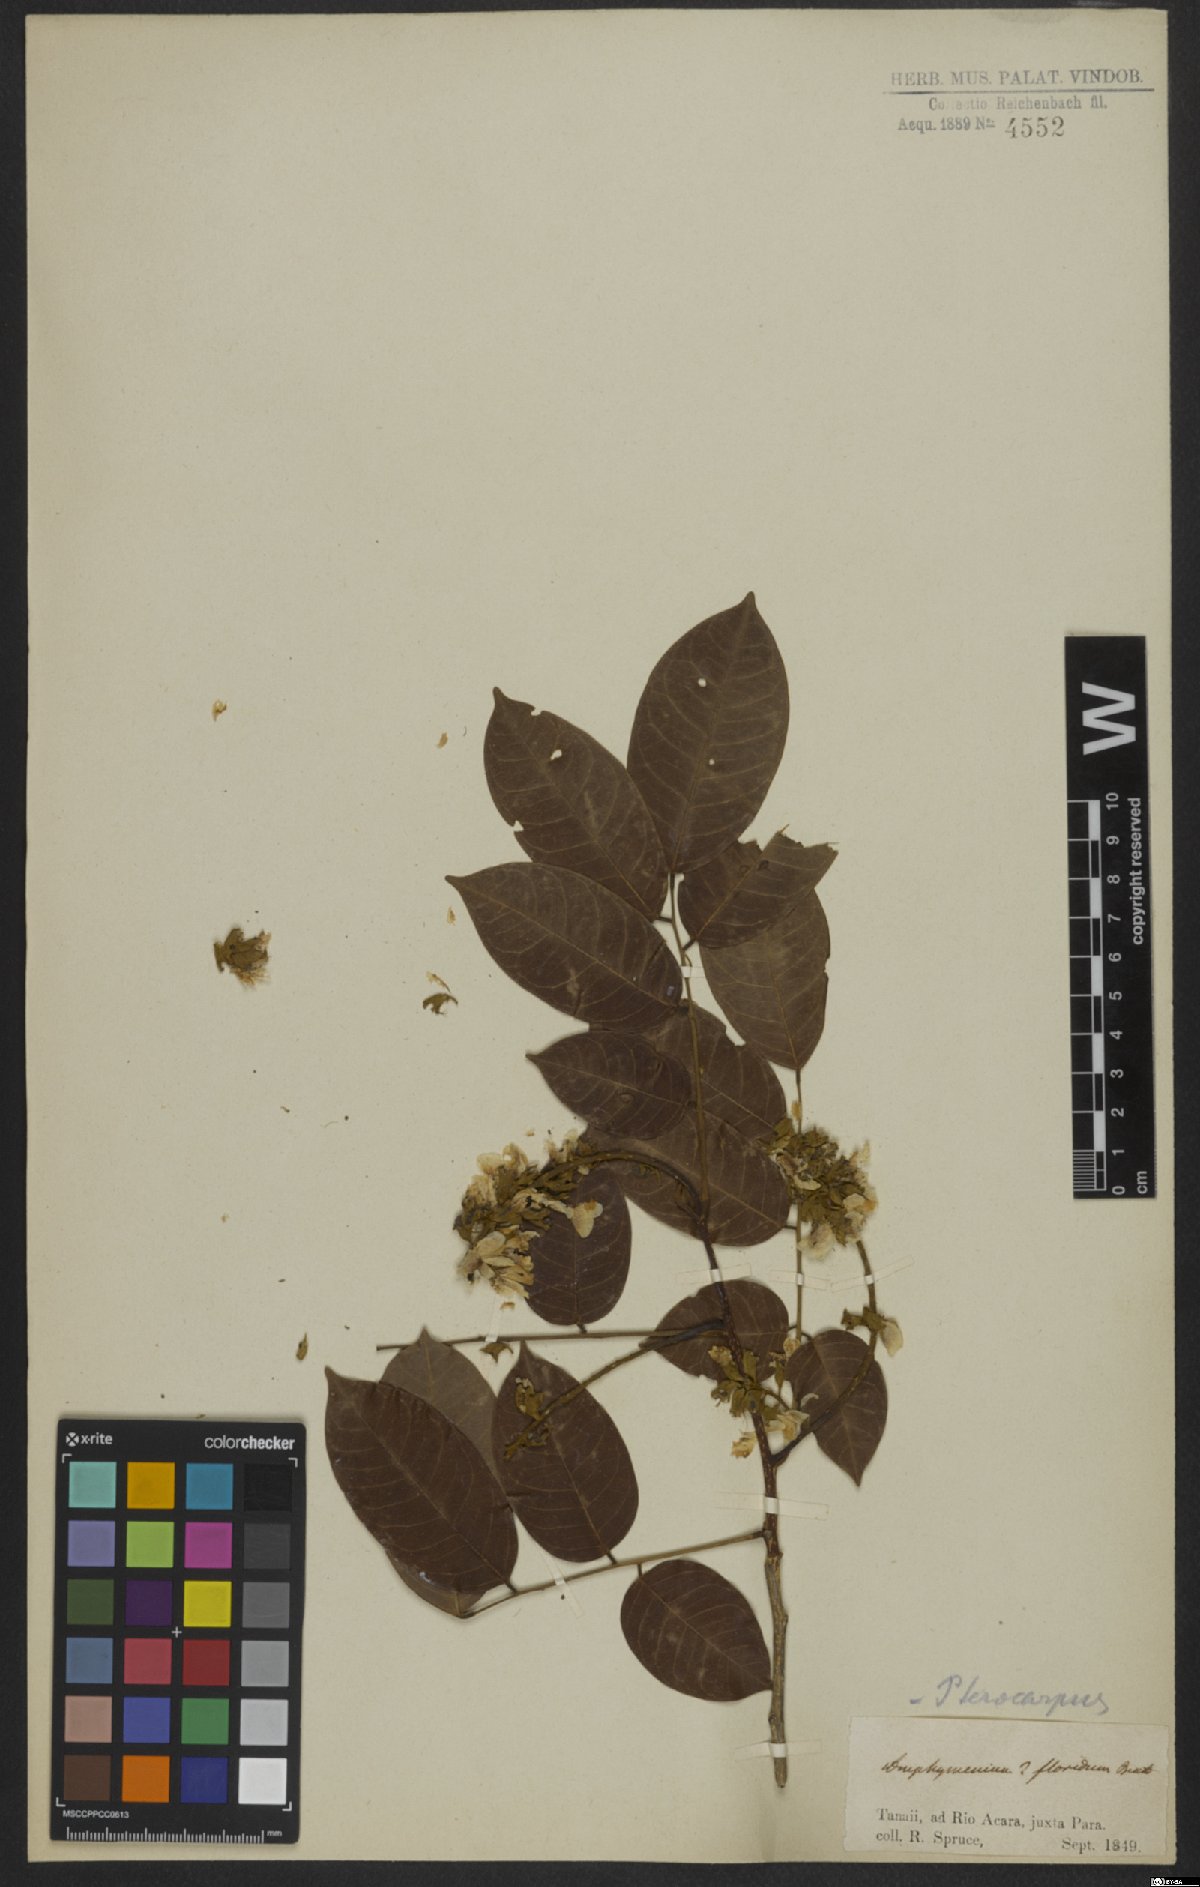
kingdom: Plantae
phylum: Tracheophyta
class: Magnoliopsida
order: Fabales
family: Fabaceae
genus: Pterocarpus
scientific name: Pterocarpus
